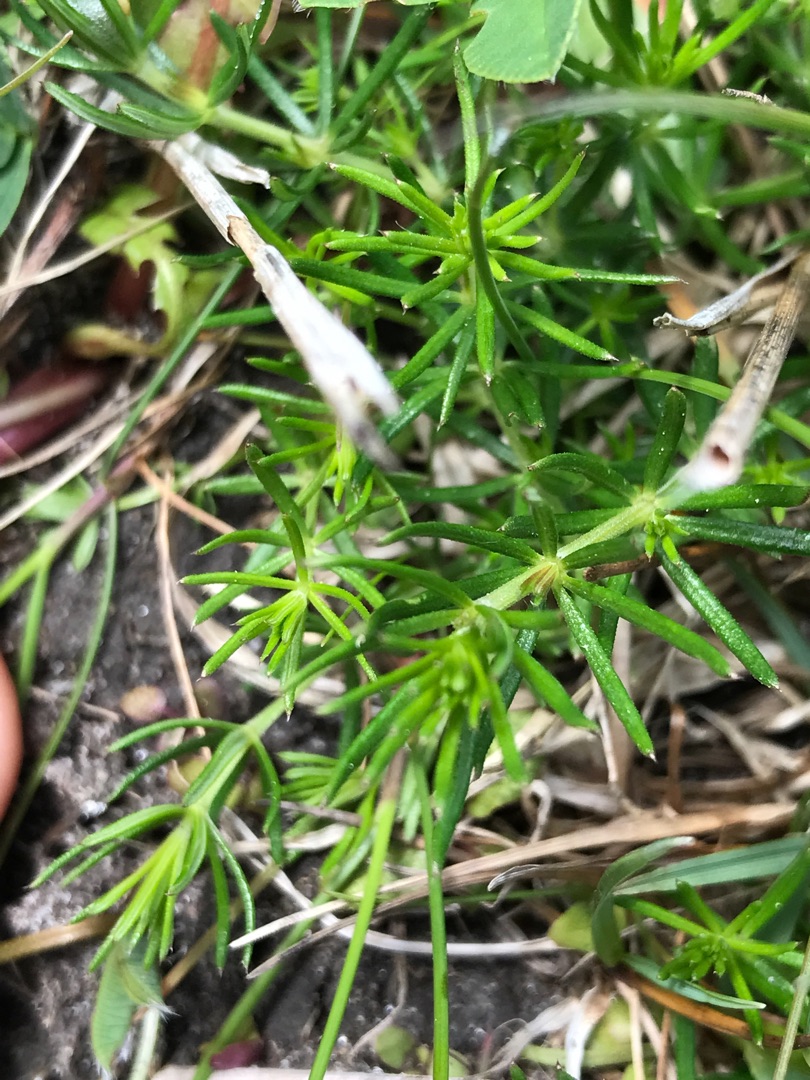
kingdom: Plantae
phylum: Tracheophyta
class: Magnoliopsida
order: Gentianales
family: Rubiaceae
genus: Galium
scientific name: Galium verum
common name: Gul snerre
